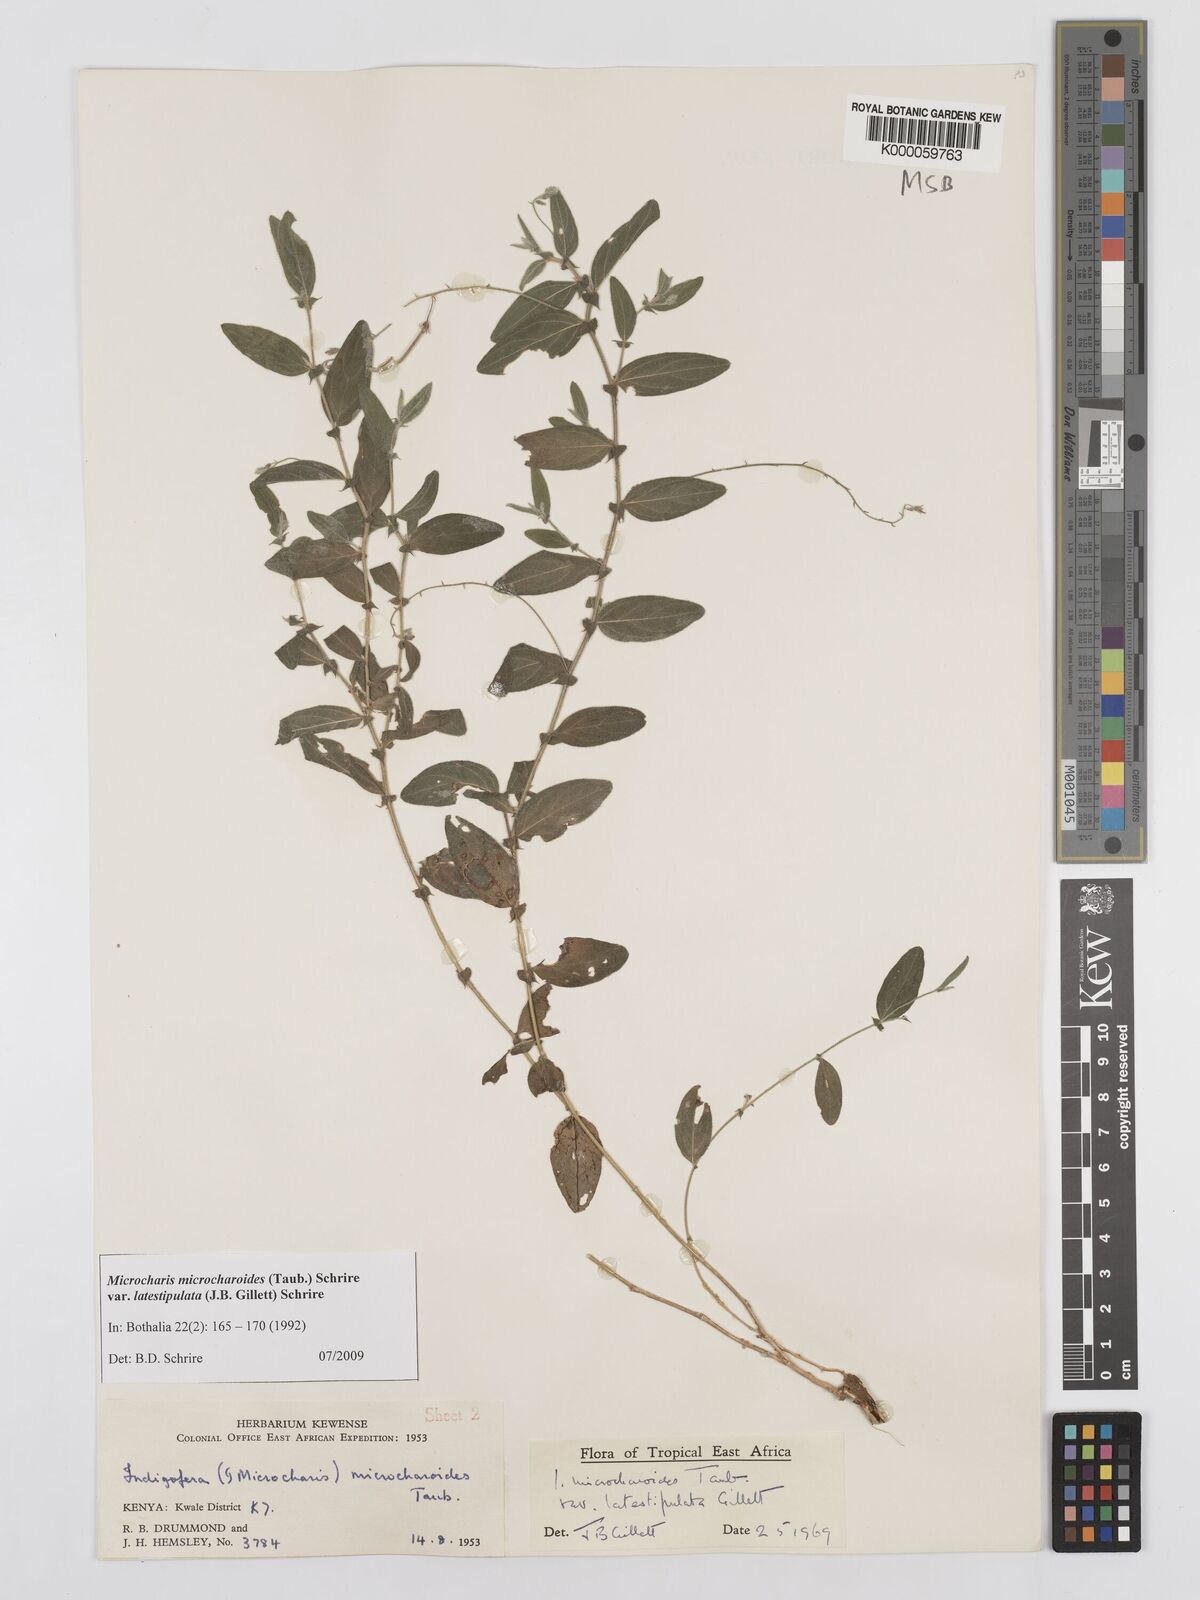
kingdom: Plantae
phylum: Tracheophyta
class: Magnoliopsida
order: Fabales
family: Fabaceae
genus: Indigofera
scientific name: Indigofera
